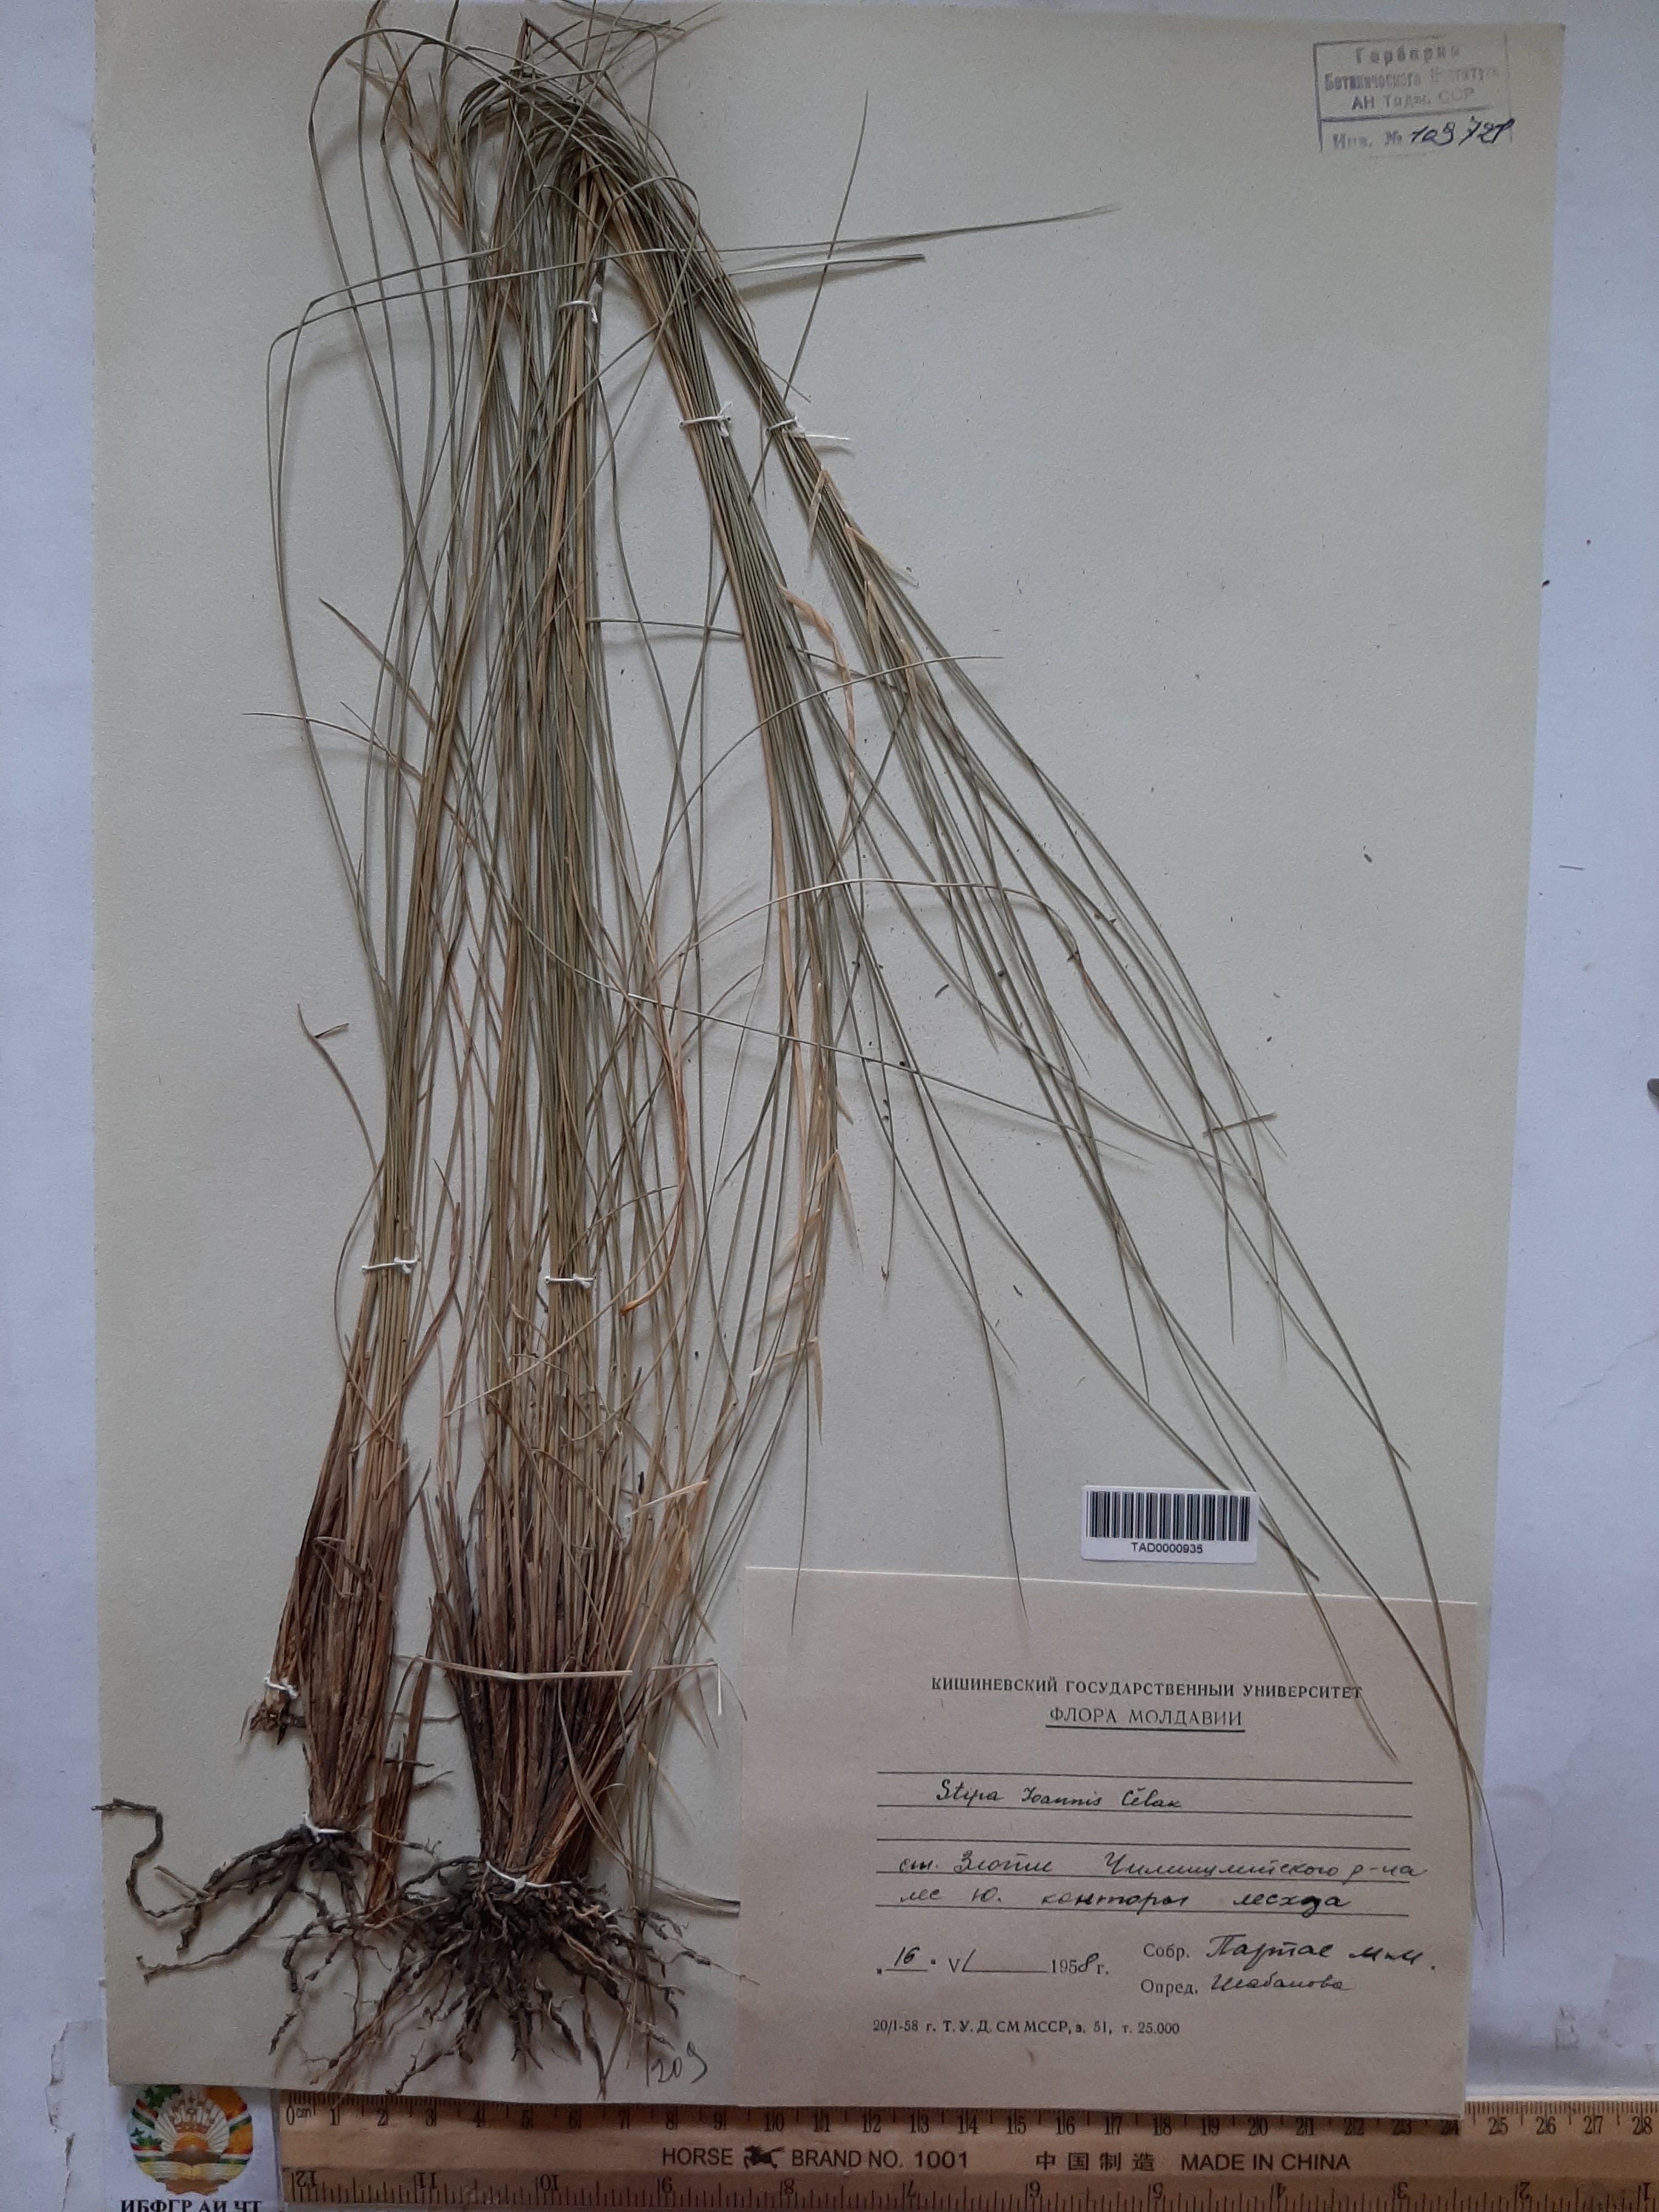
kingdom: Plantae
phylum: Tracheophyta
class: Liliopsida
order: Poales
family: Poaceae
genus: Stipa
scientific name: Stipa pennata
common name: European feather grass
